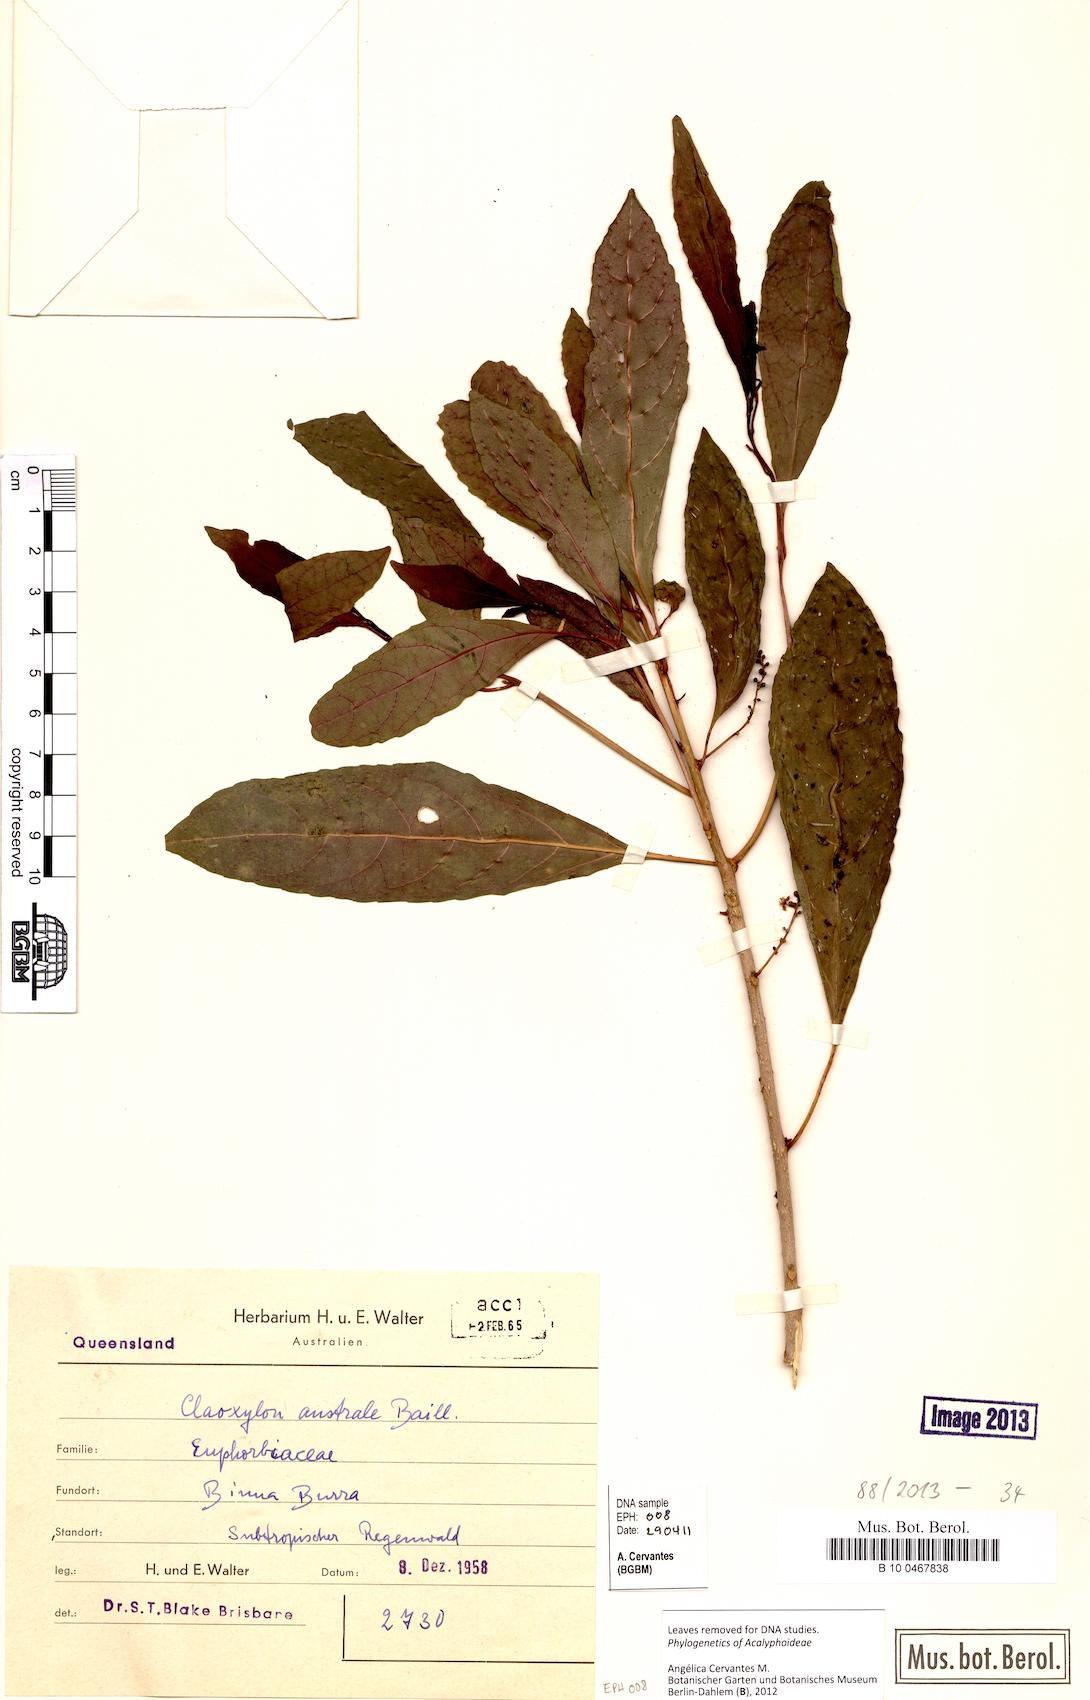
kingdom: Plantae
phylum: Tracheophyta
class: Magnoliopsida
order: Malpighiales
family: Euphorbiaceae
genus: Claoxylon
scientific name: Claoxylon australe
